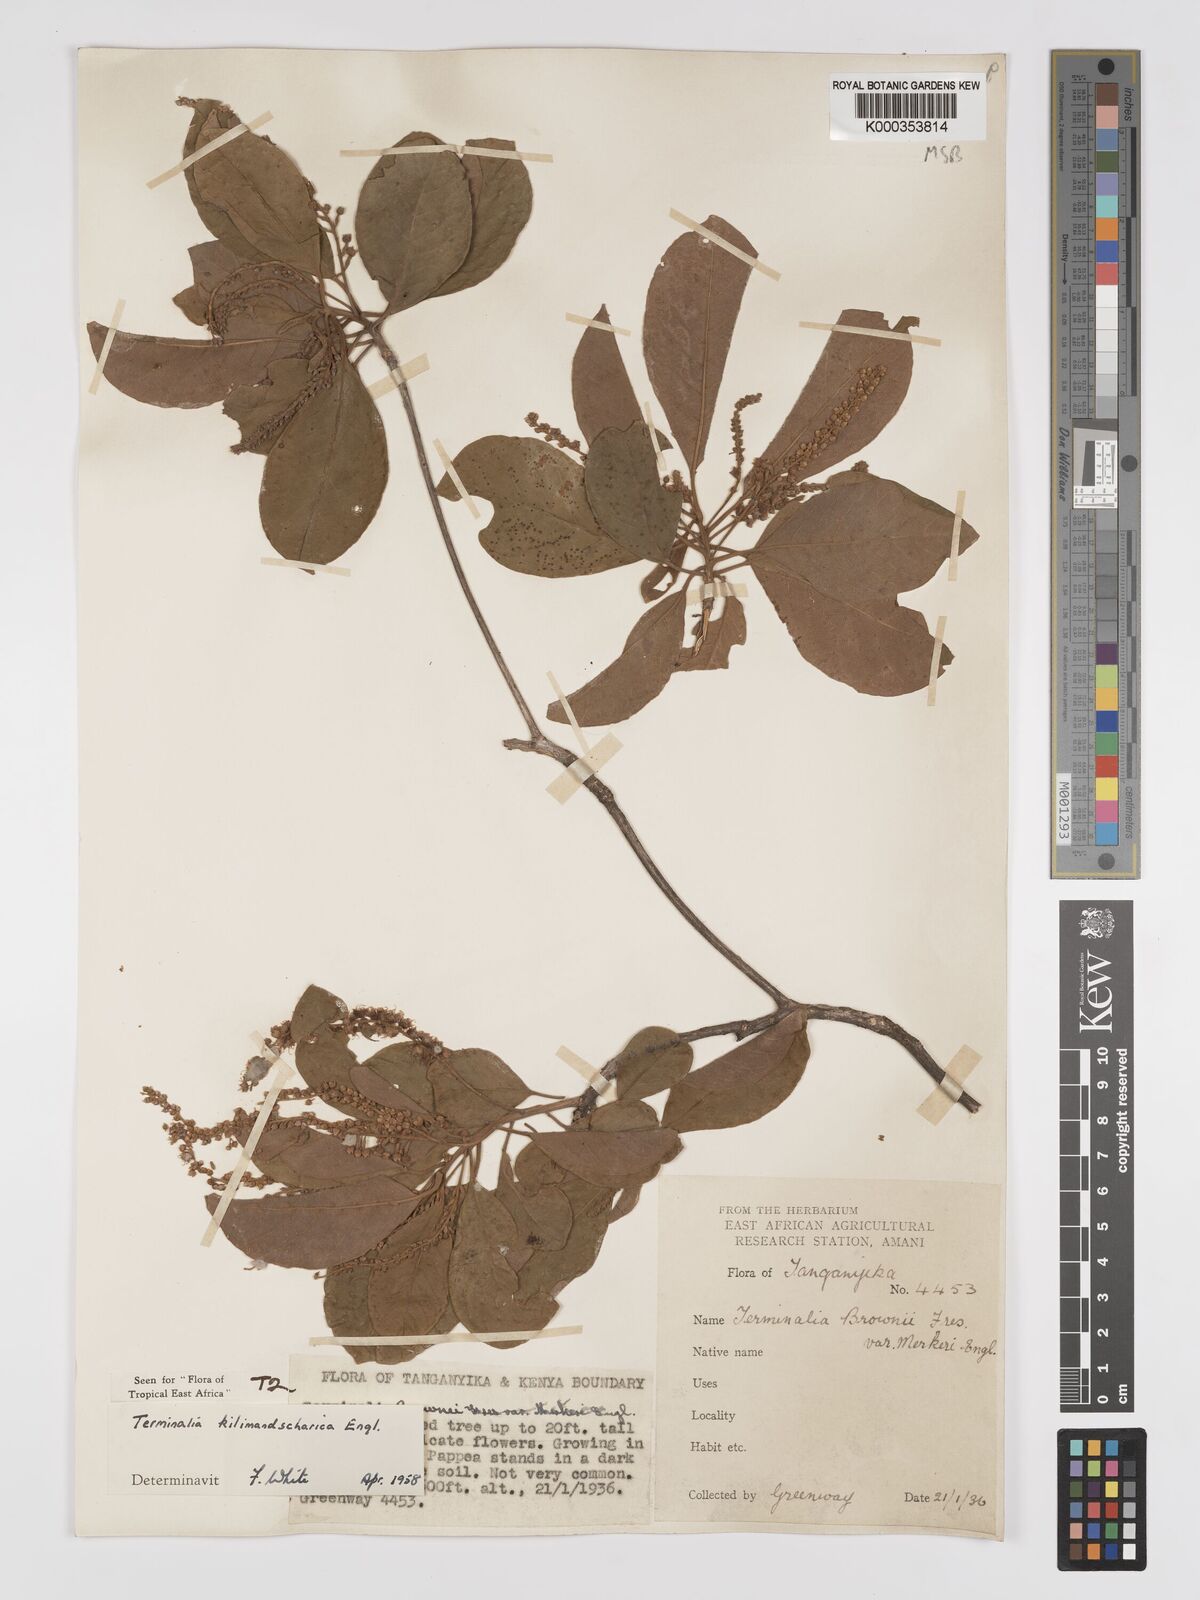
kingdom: Plantae
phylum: Tracheophyta
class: Magnoliopsida
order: Myrtales
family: Combretaceae
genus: Terminalia
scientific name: Terminalia kilimandscharica
